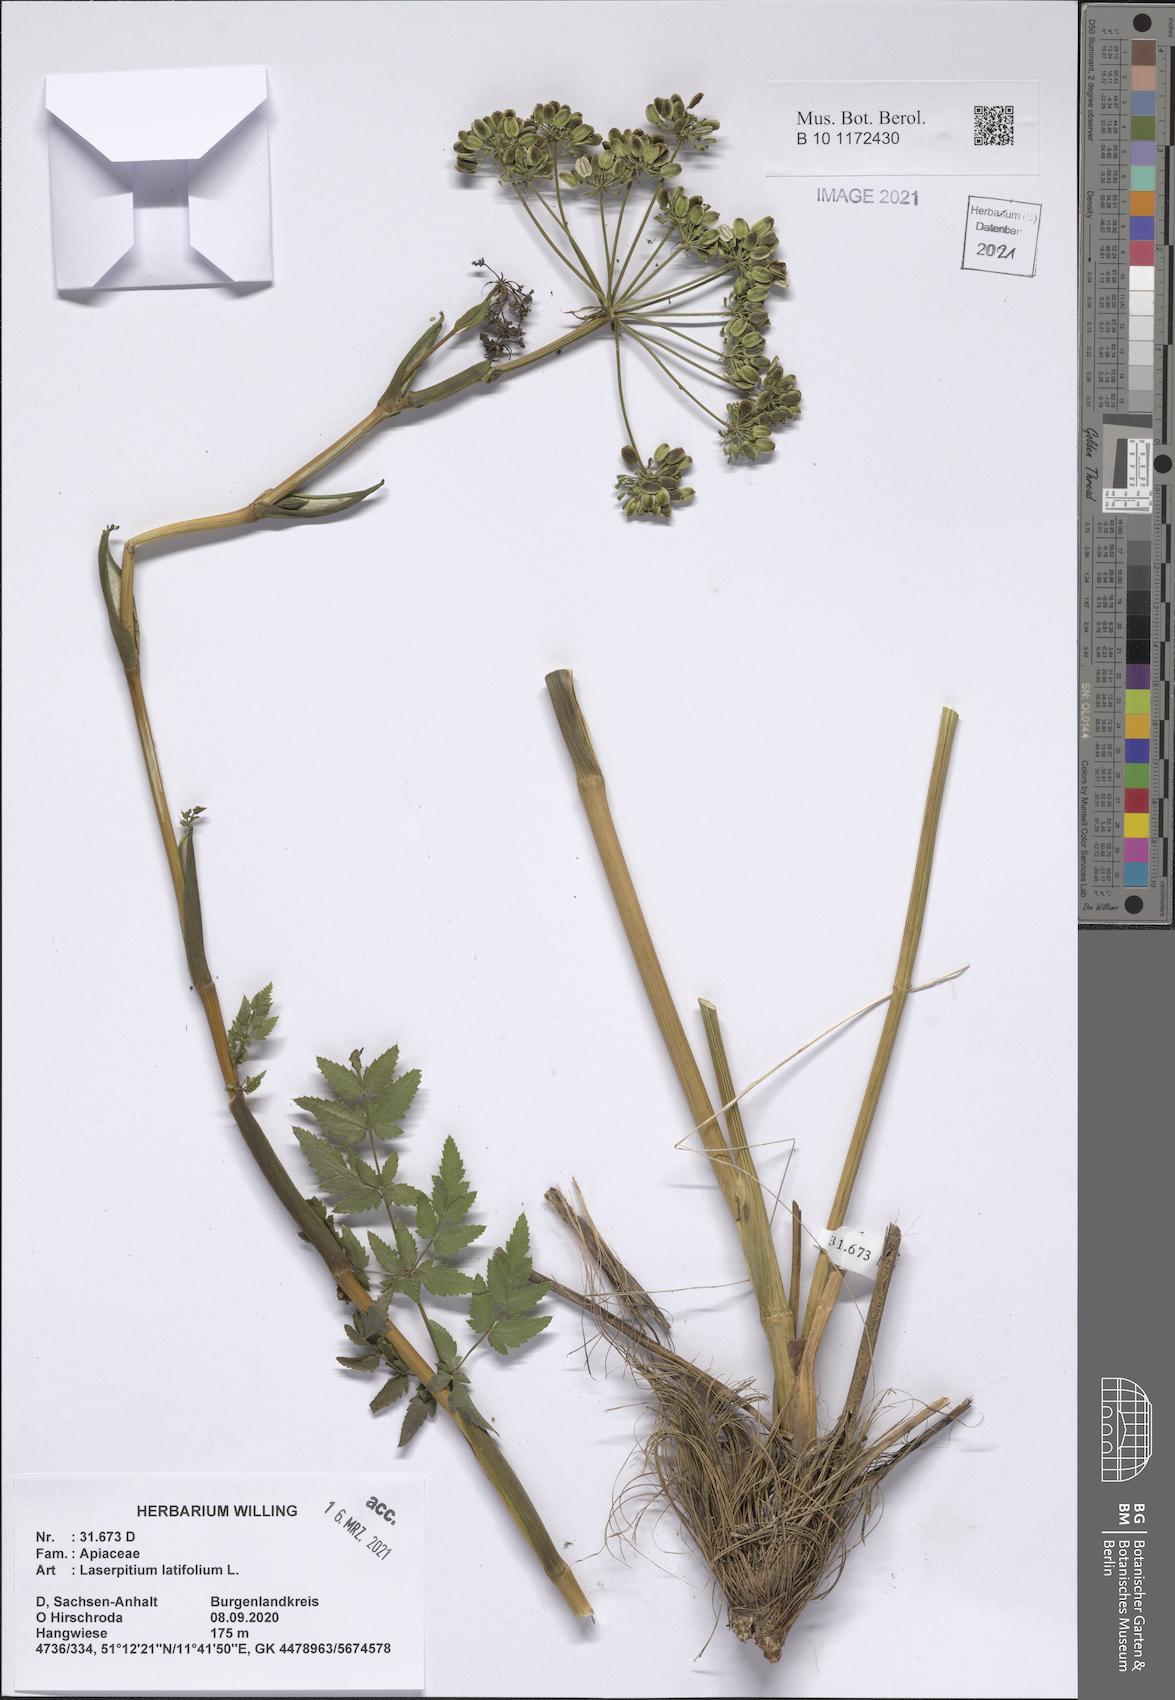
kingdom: Plantae
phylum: Tracheophyta
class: Magnoliopsida
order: Apiales
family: Apiaceae
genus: Laserpitium
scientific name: Laserpitium latifolium
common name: Broadleaf sermountain
